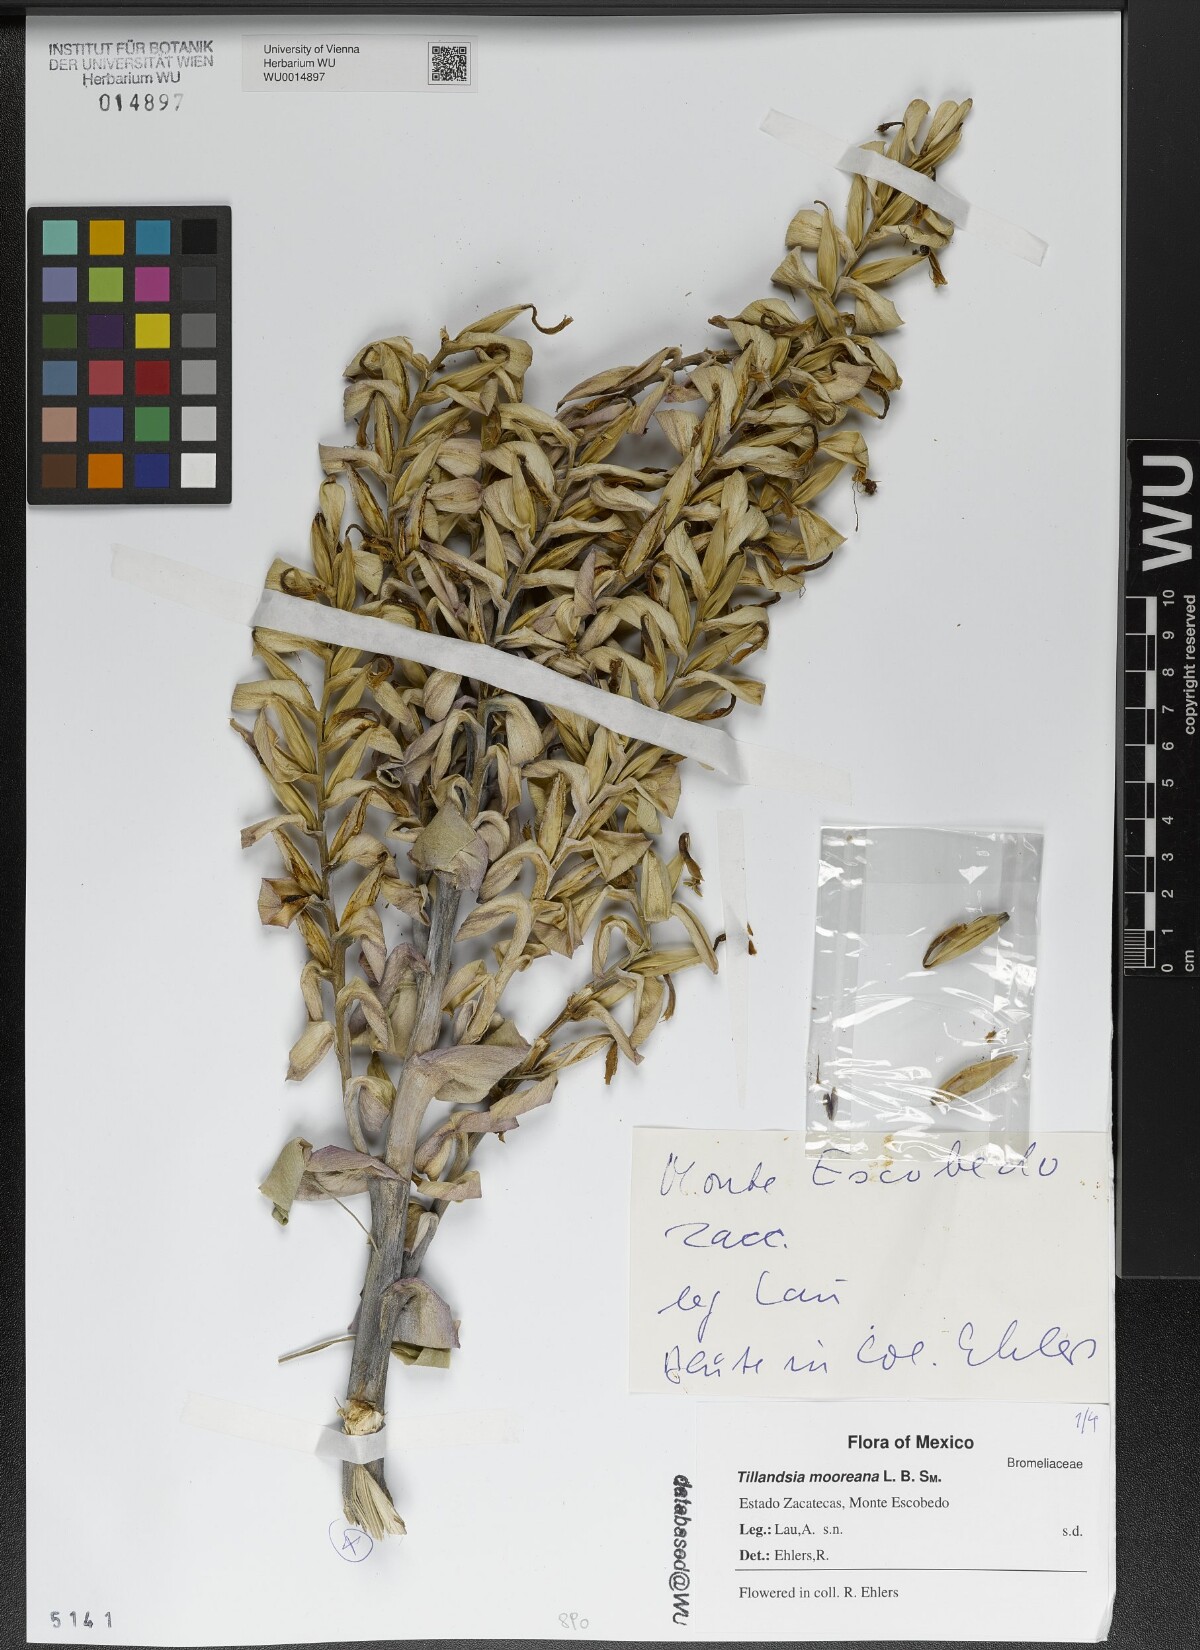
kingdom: Plantae
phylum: Tracheophyta
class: Liliopsida
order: Poales
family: Bromeliaceae
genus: Tillandsia
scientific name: Tillandsia mooreana
